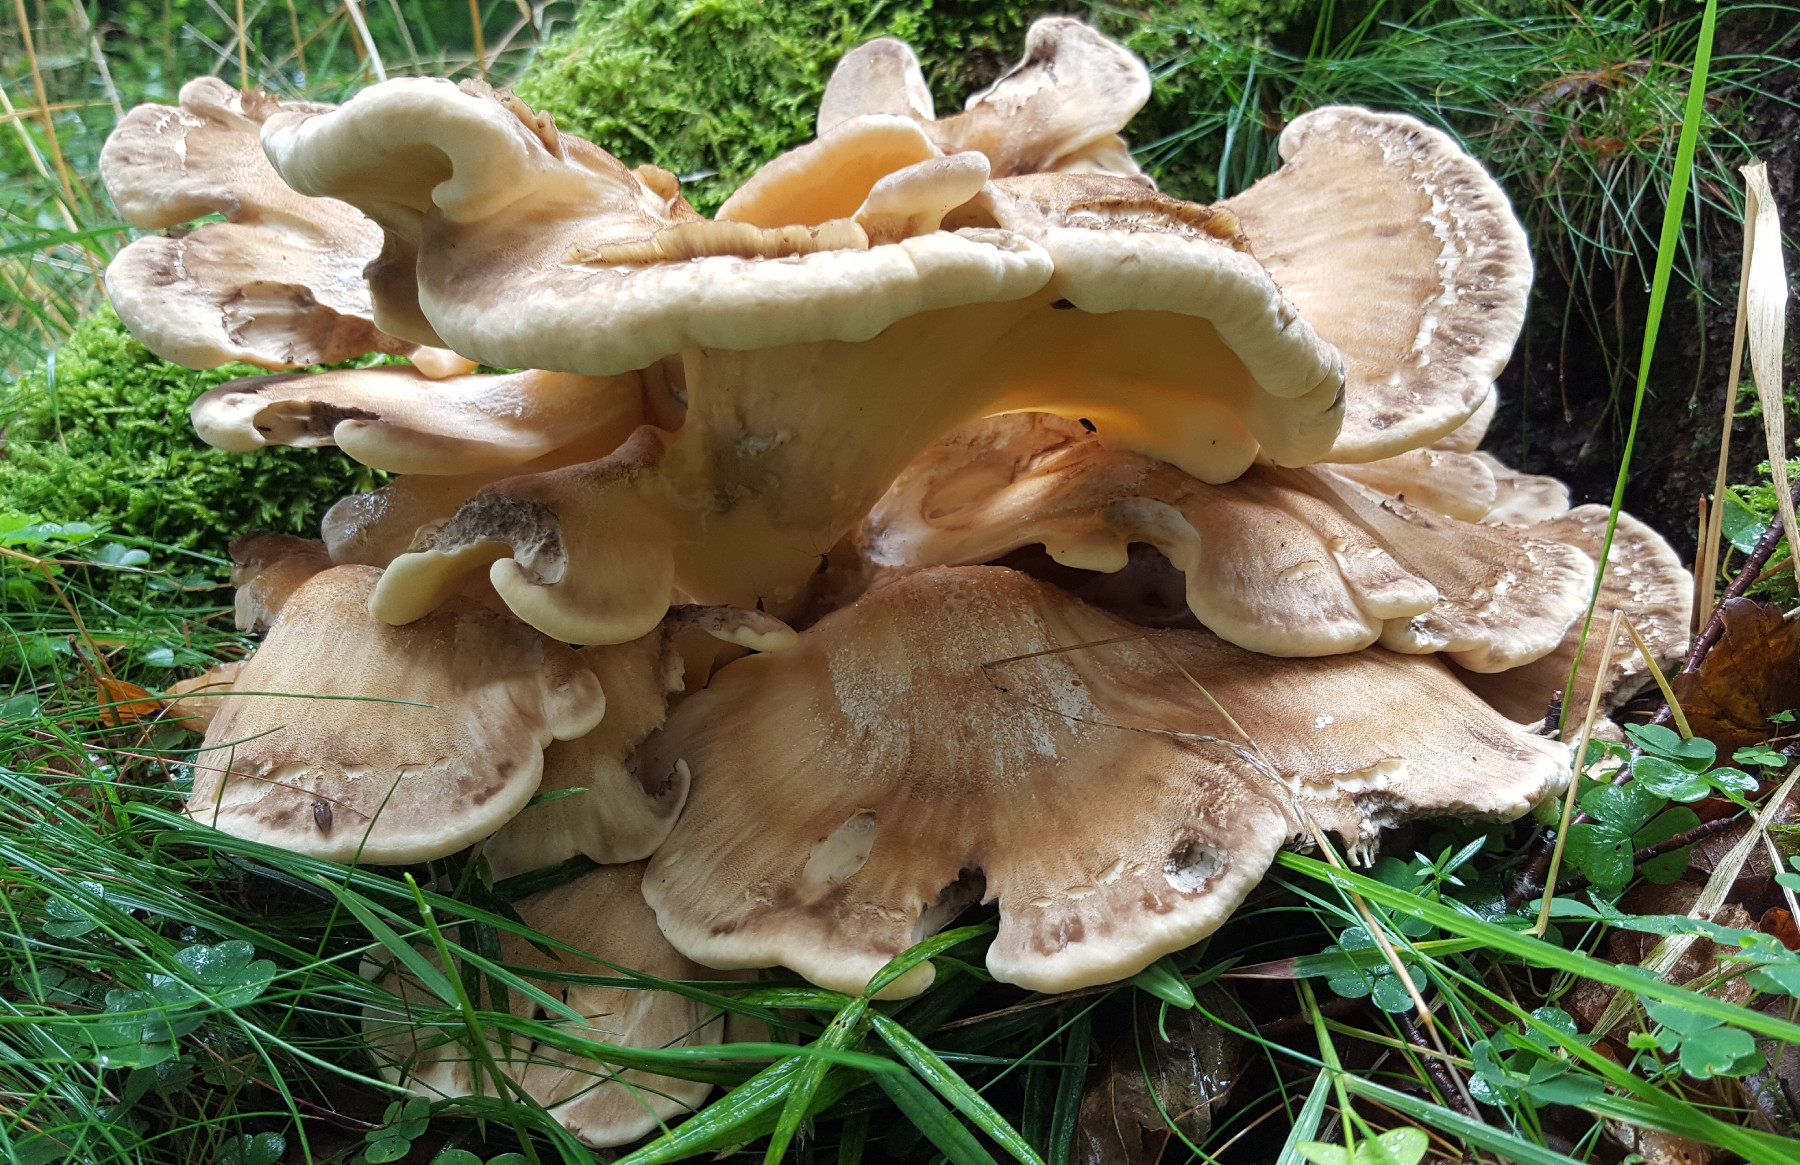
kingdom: Fungi
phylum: Basidiomycota
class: Agaricomycetes
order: Polyporales
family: Meripilaceae
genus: Meripilus
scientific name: Meripilus giganteus
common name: kæmpeporesvamp
